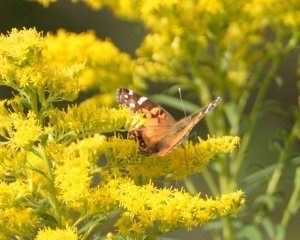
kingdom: Animalia
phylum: Arthropoda
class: Insecta
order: Lepidoptera
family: Nymphalidae
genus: Vanessa
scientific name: Vanessa virginiensis
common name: American Lady
